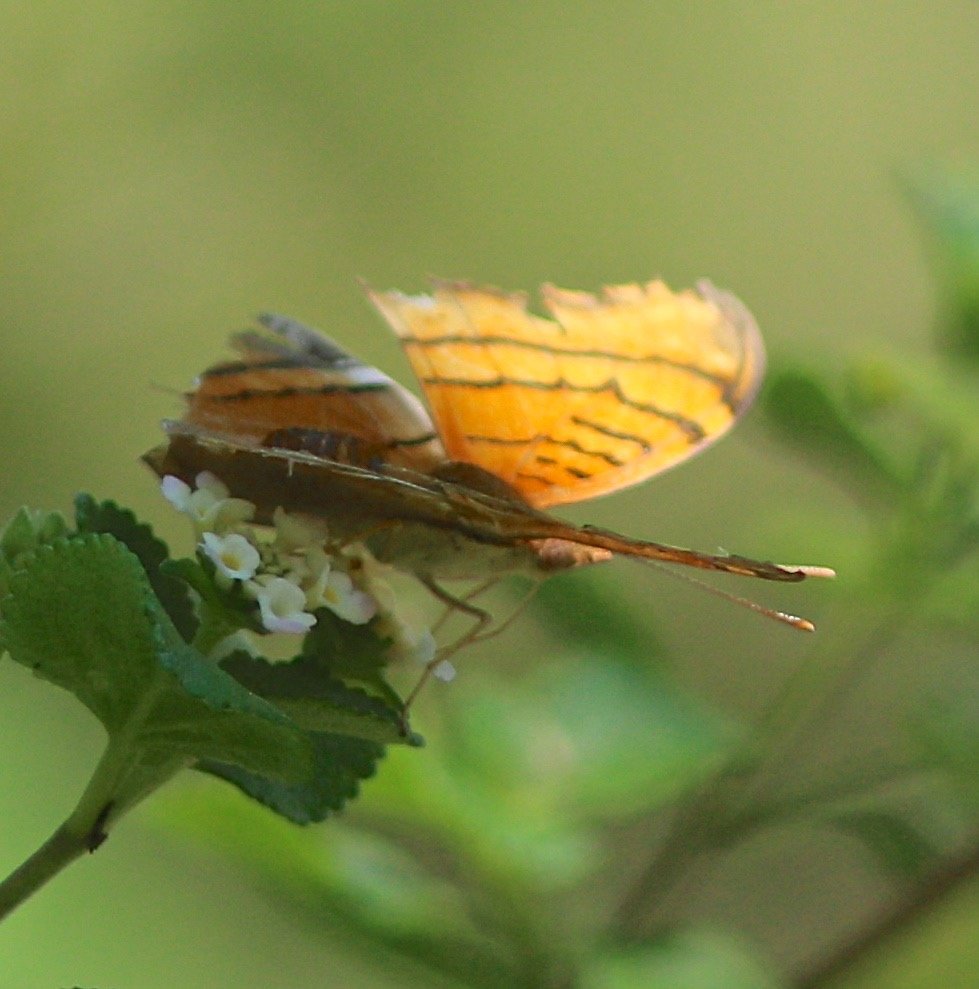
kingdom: Animalia
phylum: Arthropoda
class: Insecta
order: Lepidoptera
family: Nymphalidae
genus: Marpesia
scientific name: Marpesia eleuchea
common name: Antillean Daggerwing
